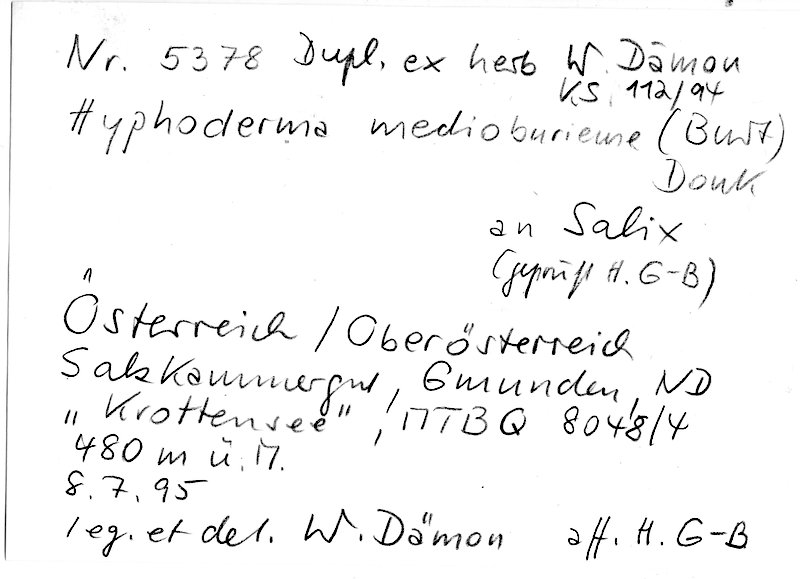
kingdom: Plantae
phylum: Tracheophyta
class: Magnoliopsida
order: Malpighiales
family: Salicaceae
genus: Salix
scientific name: Salix
